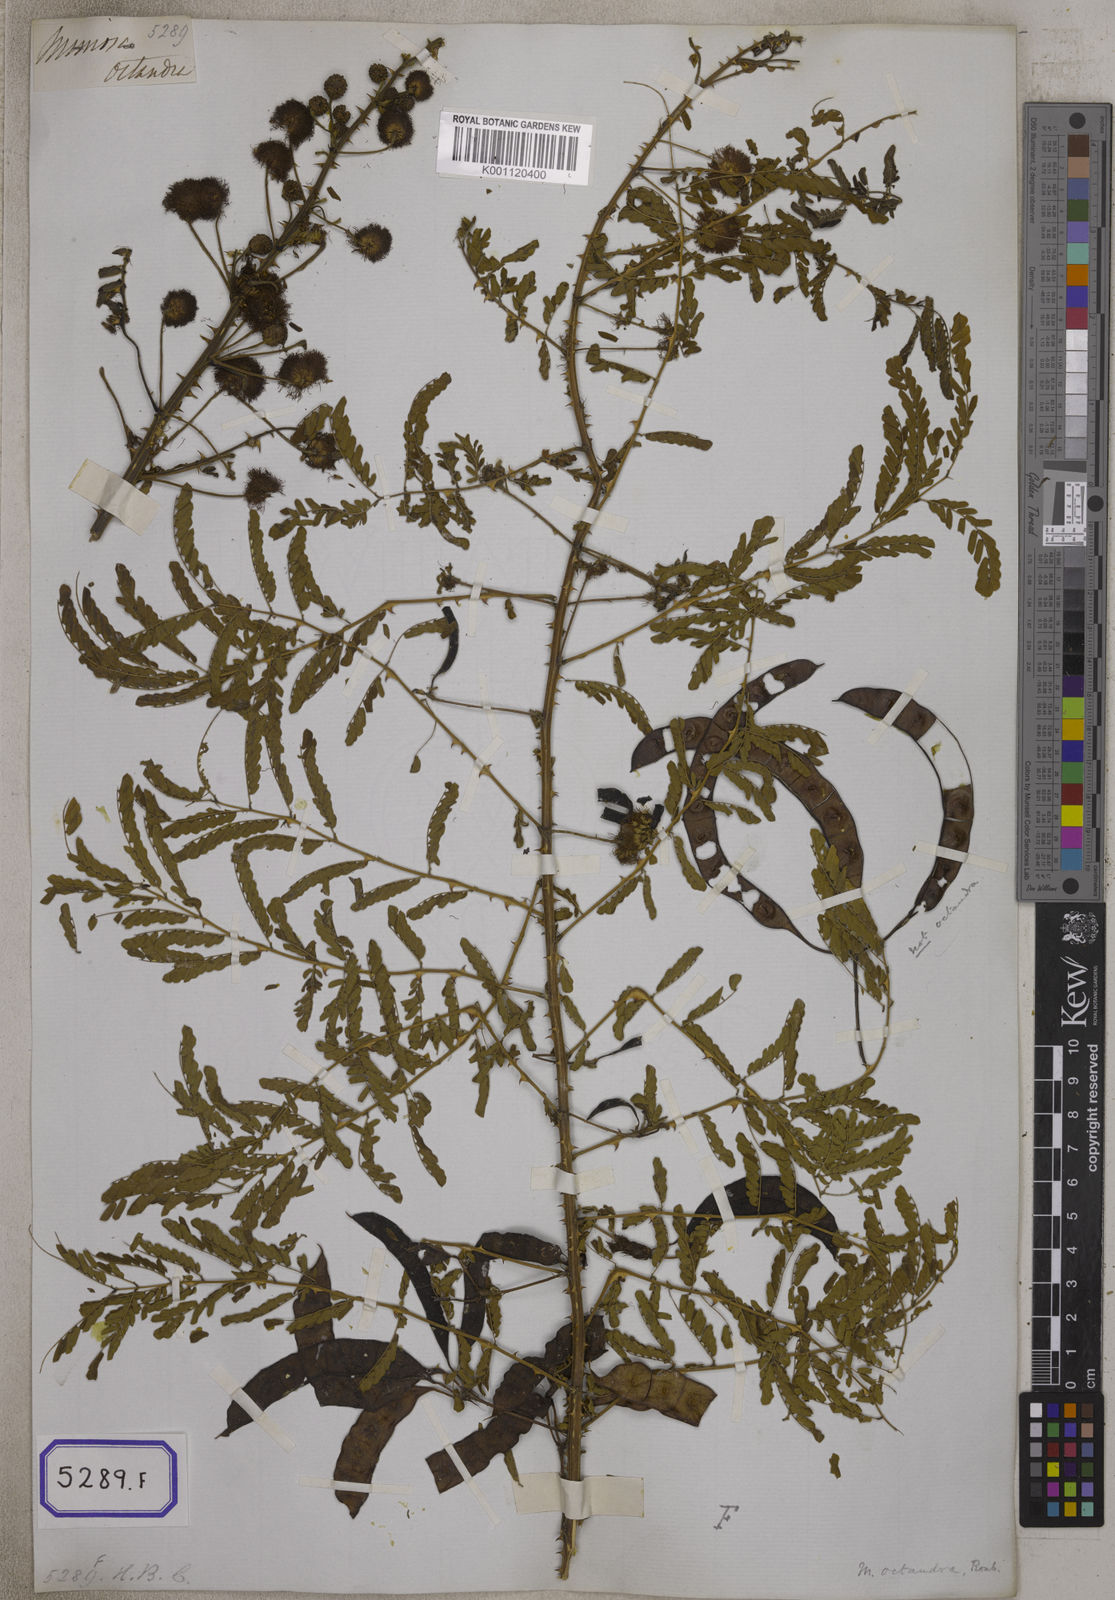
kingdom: Plantae
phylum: Tracheophyta
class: Magnoliopsida
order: Fabales
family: Fabaceae
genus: Mimosa
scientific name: Mimosa rubicaulis
